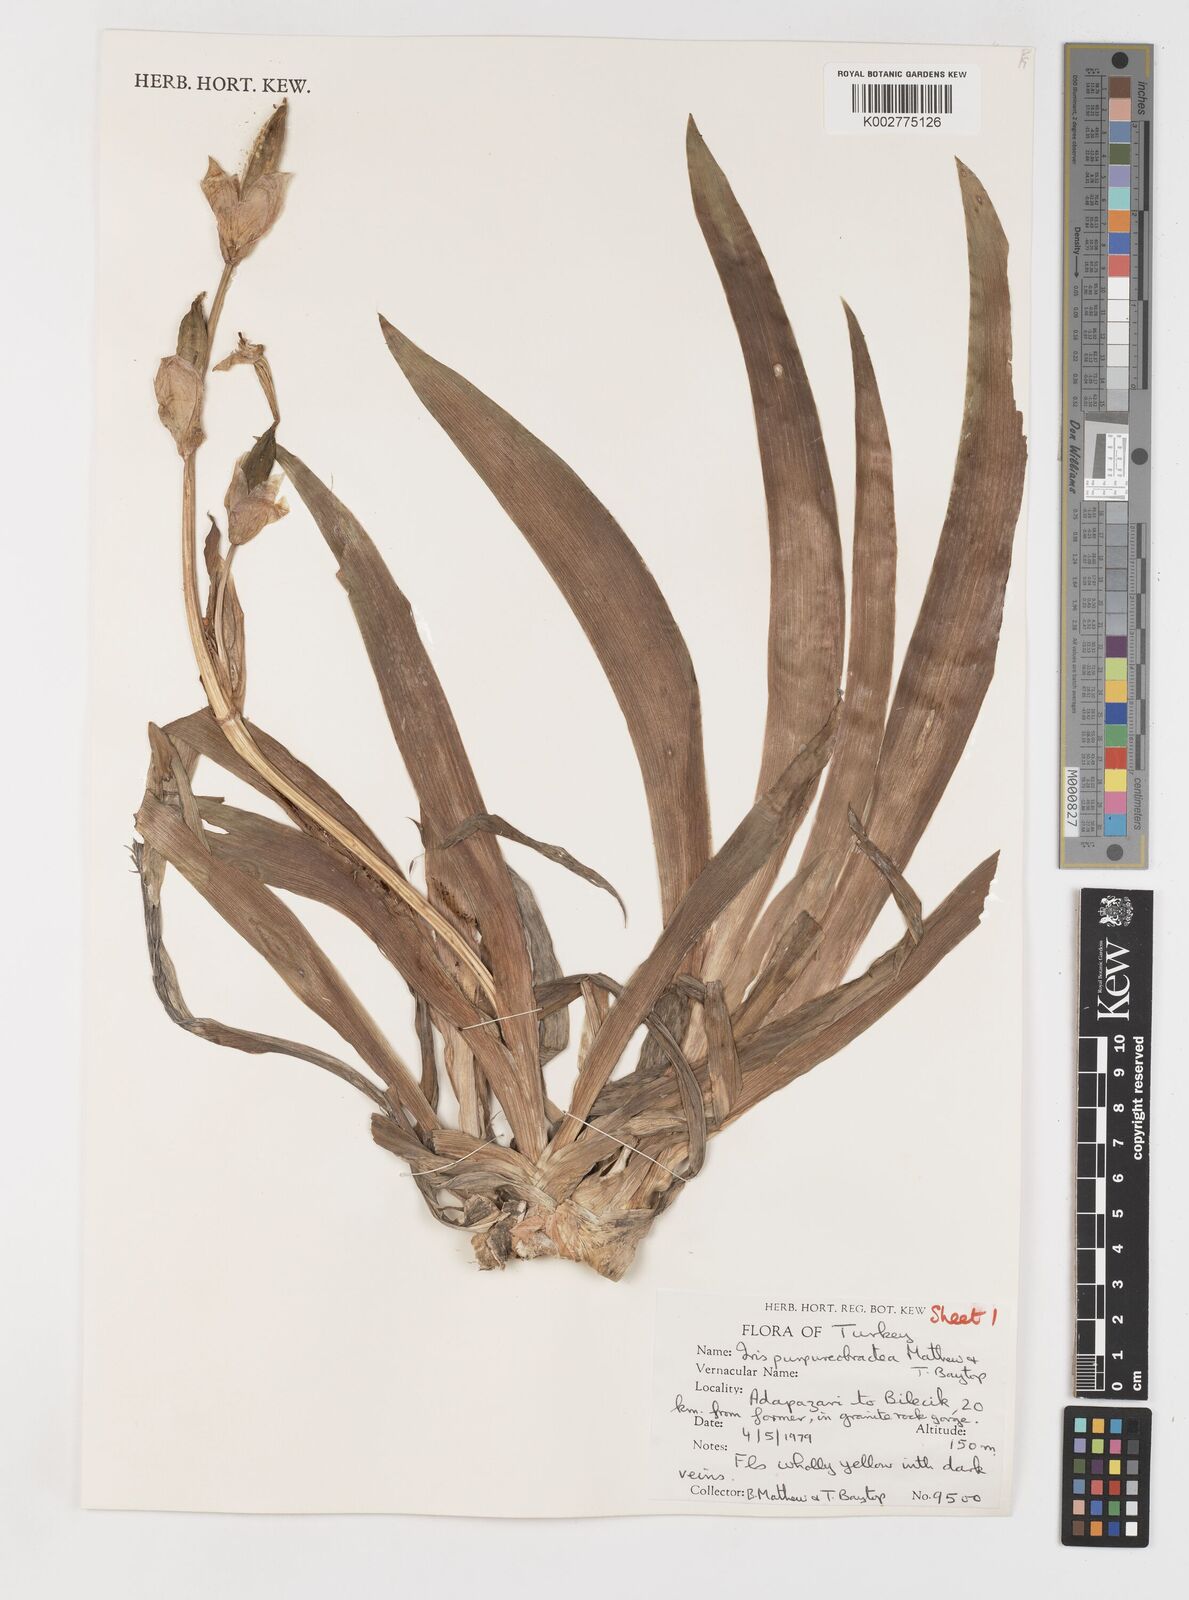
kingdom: Plantae
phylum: Tracheophyta
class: Liliopsida
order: Asparagales
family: Iridaceae
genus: Iris
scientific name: Iris purpureobractea
